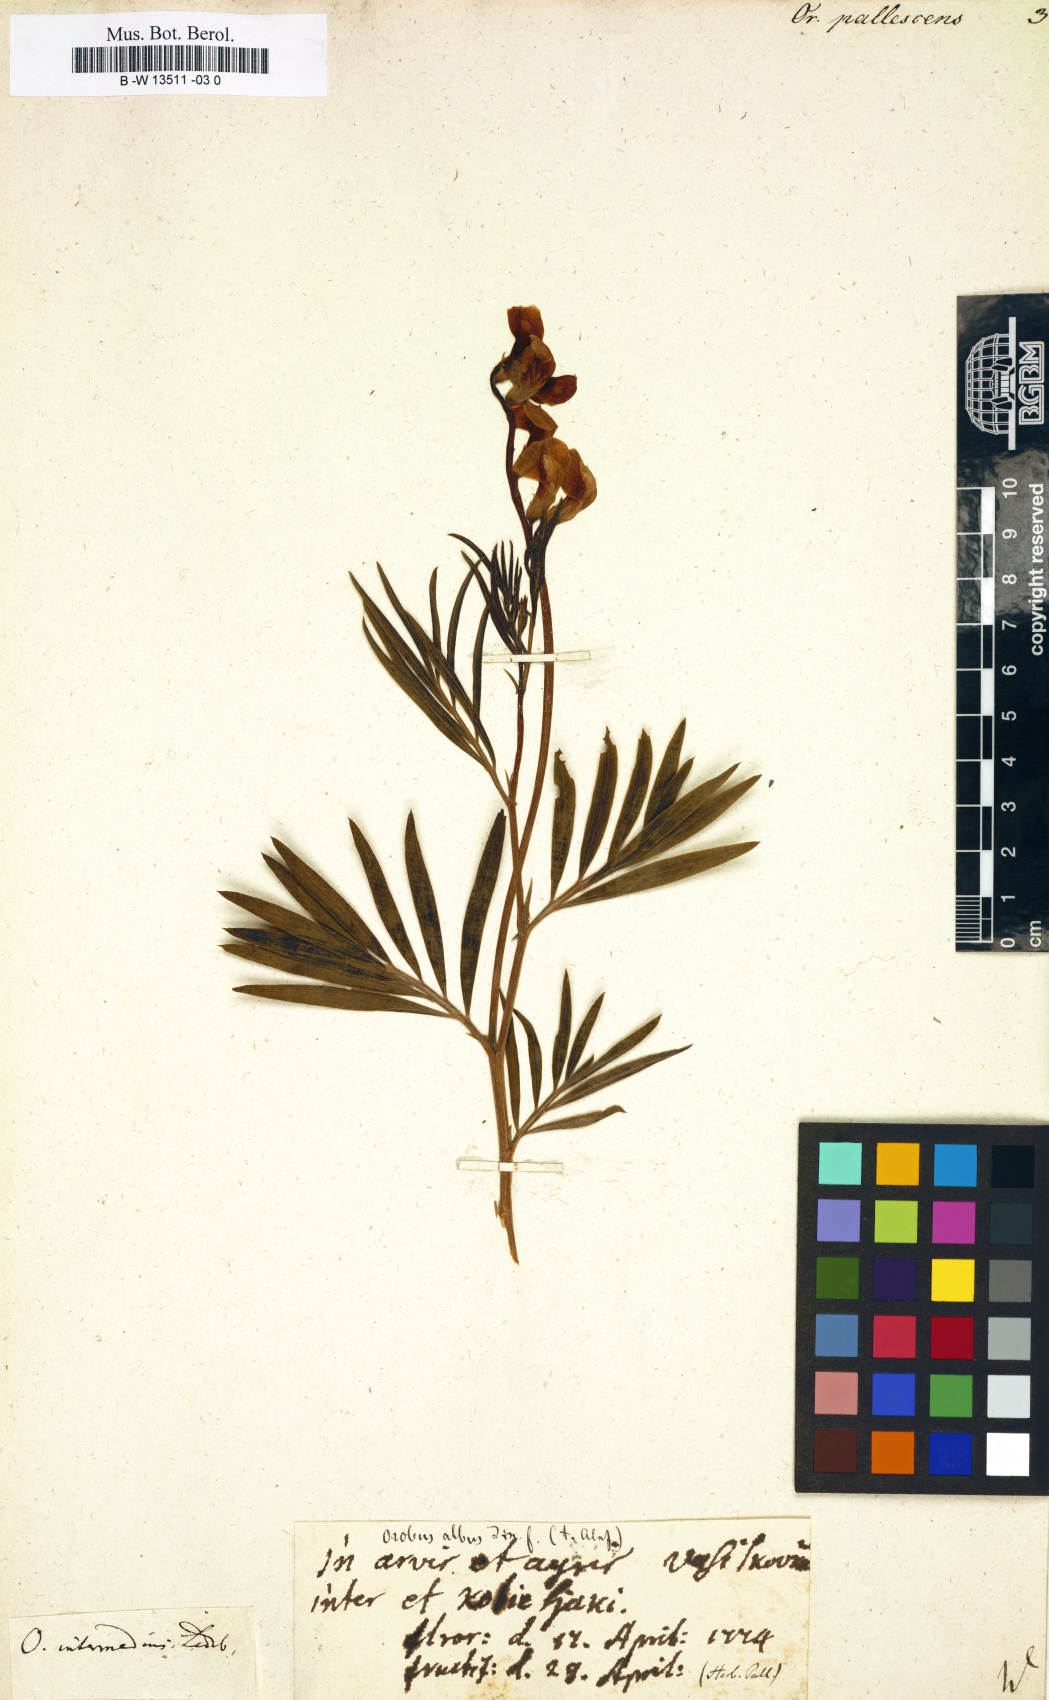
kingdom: Plantae
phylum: Tracheophyta
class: Magnoliopsida
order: Fabales
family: Fabaceae
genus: Lathyrus
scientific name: Lathyrus pallescens
